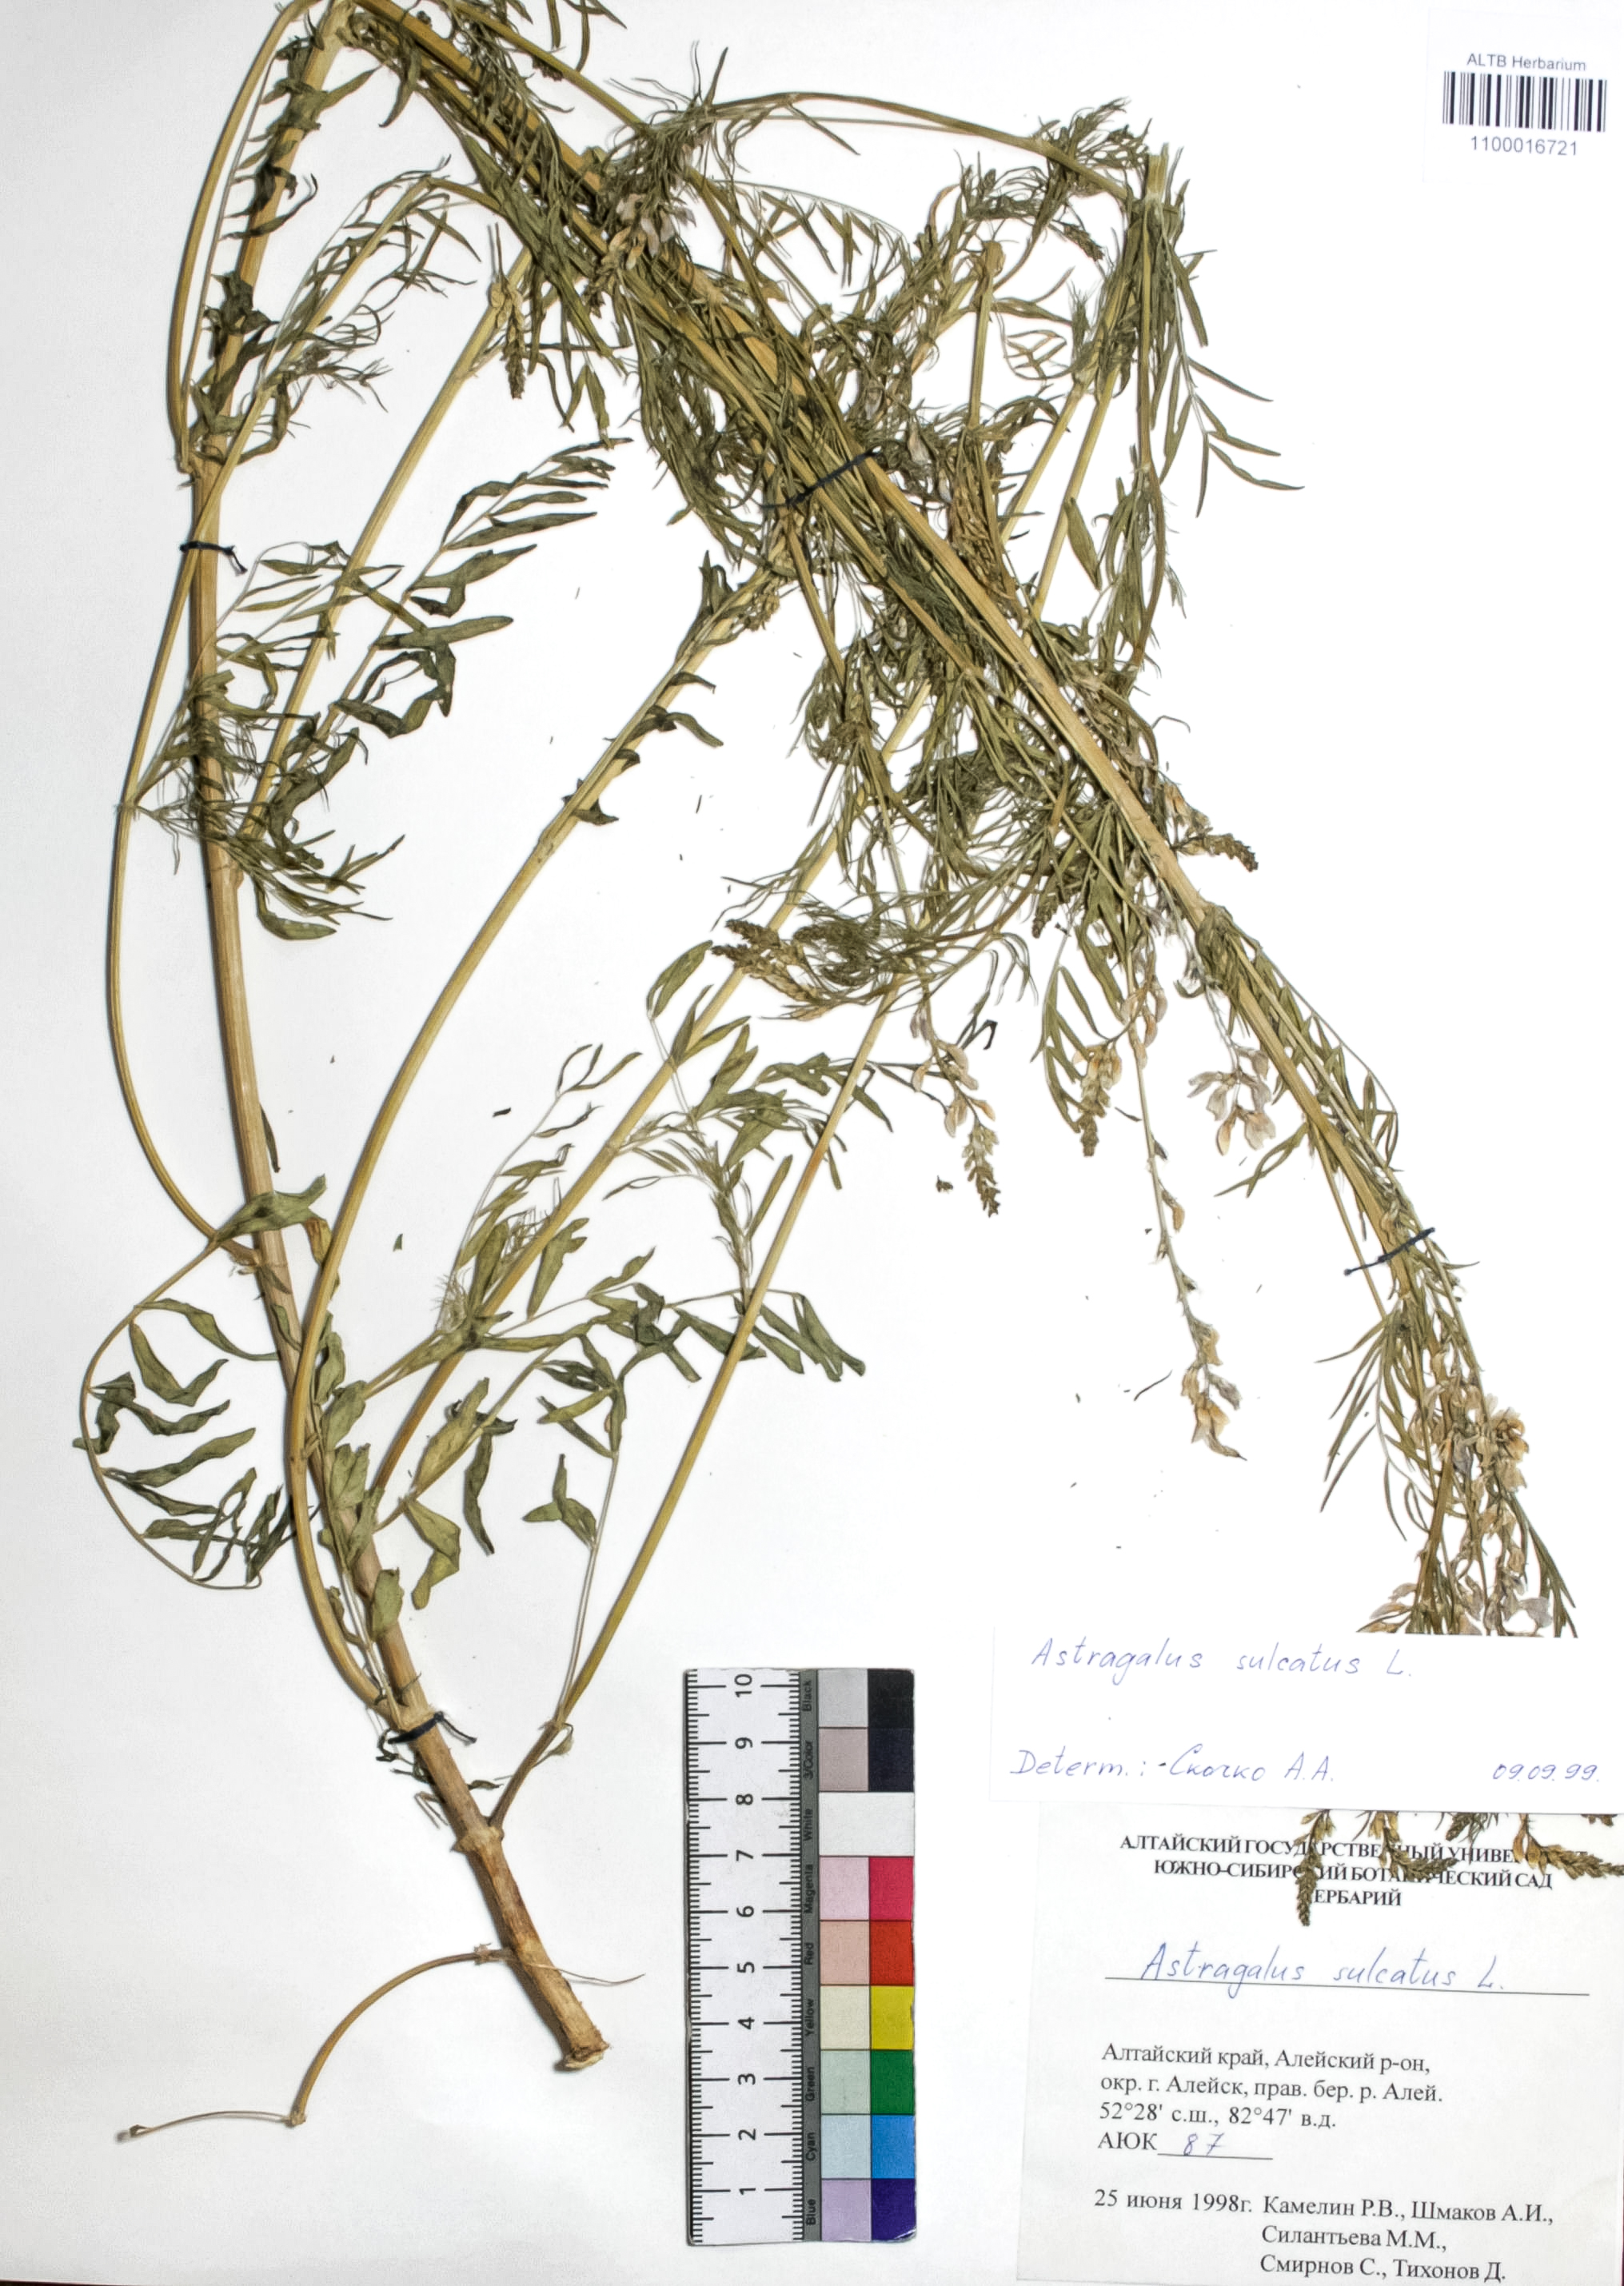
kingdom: Plantae
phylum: Tracheophyta
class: Magnoliopsida
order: Fabales
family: Fabaceae
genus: Astragalus
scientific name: Astragalus sulcatus
